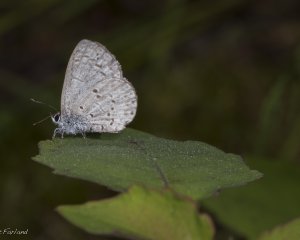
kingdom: Animalia
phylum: Arthropoda
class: Insecta
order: Lepidoptera
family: Lycaenidae
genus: Celastrina
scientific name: Celastrina lucia
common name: Northern Spring Azure
